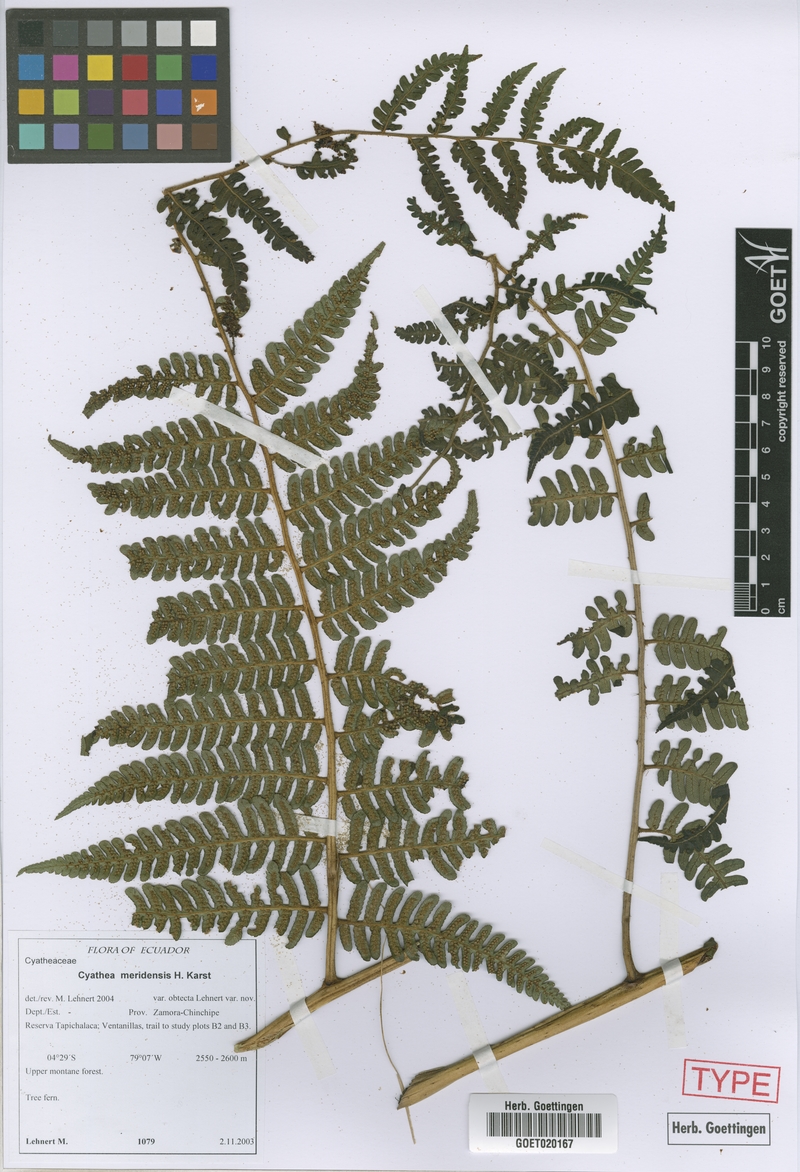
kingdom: Plantae
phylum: Tracheophyta
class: Polypodiopsida
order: Cyatheales
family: Cyatheaceae
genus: Cyathea
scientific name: Cyathea meridensis
